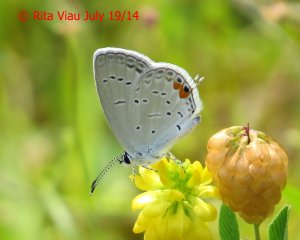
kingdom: Animalia
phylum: Arthropoda
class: Insecta
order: Lepidoptera
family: Lycaenidae
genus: Elkalyce
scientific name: Elkalyce comyntas
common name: Eastern Tailed-Blue
